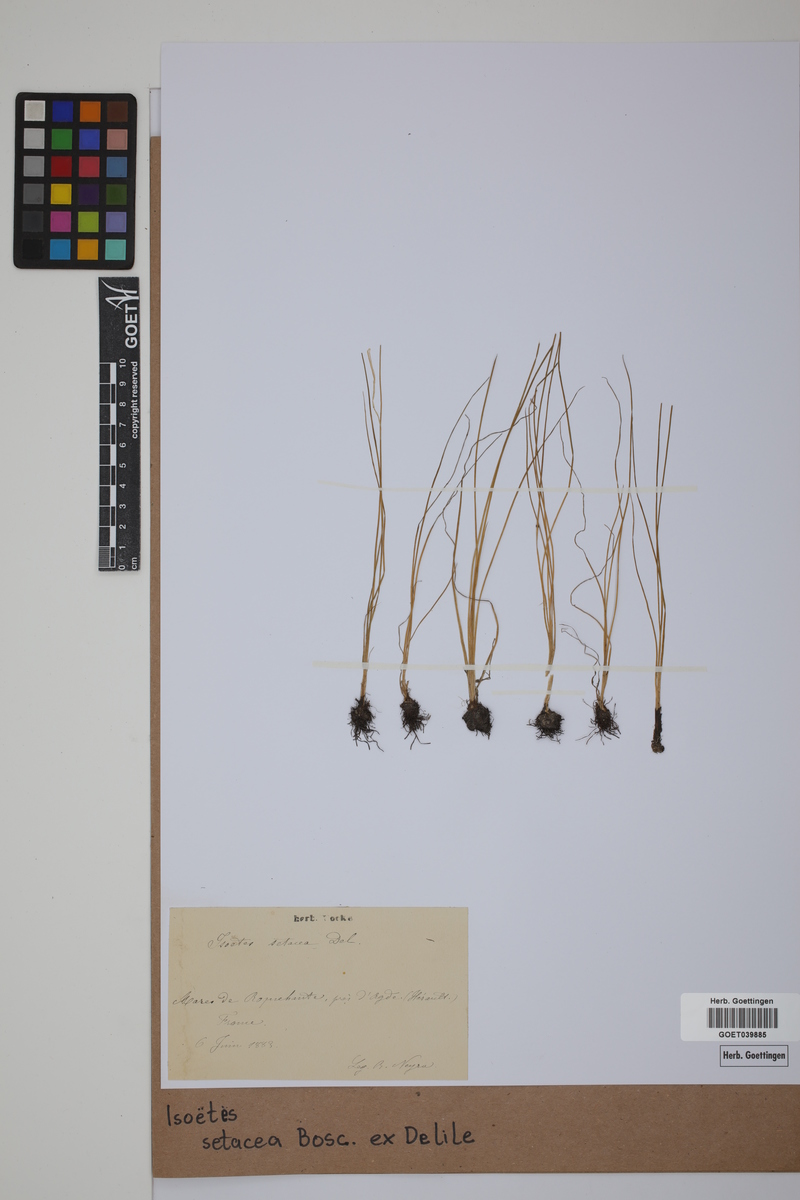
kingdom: Plantae
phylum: Tracheophyta
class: Lycopodiopsida
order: Isoetales
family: Isoetaceae
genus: Isoetes
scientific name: Isoetes longissima
